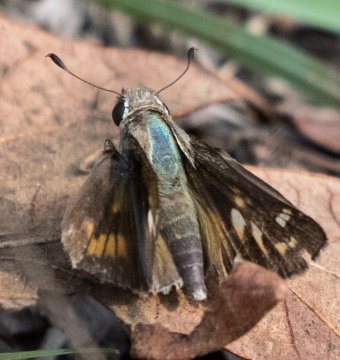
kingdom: Animalia
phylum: Arthropoda
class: Insecta
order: Lepidoptera
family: Hesperiidae
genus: Atalopedes
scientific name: Atalopedes campestris
